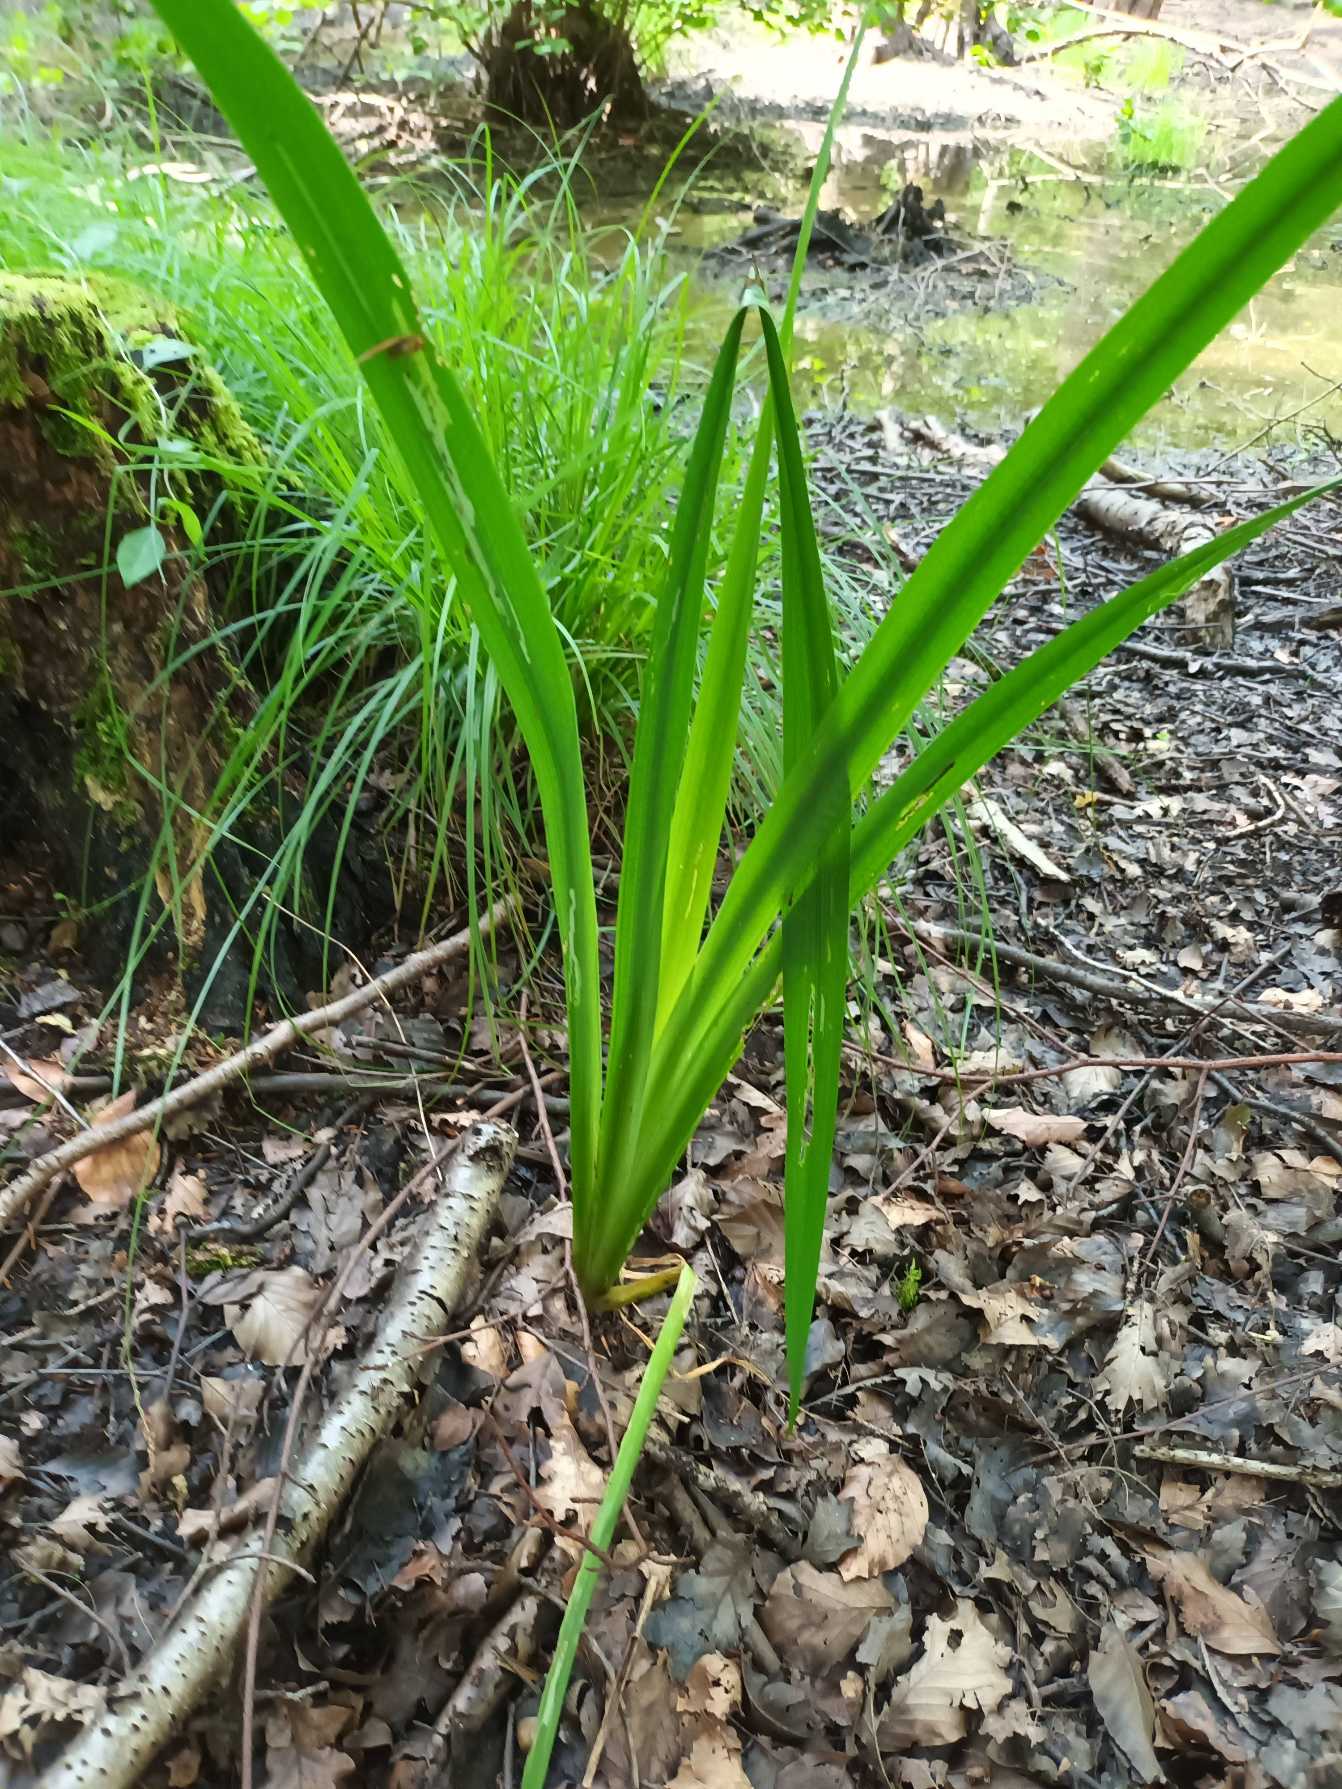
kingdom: Plantae
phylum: Tracheophyta
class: Liliopsida
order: Asparagales
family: Iridaceae
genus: Iris
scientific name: Iris pseudacorus
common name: Gul iris
